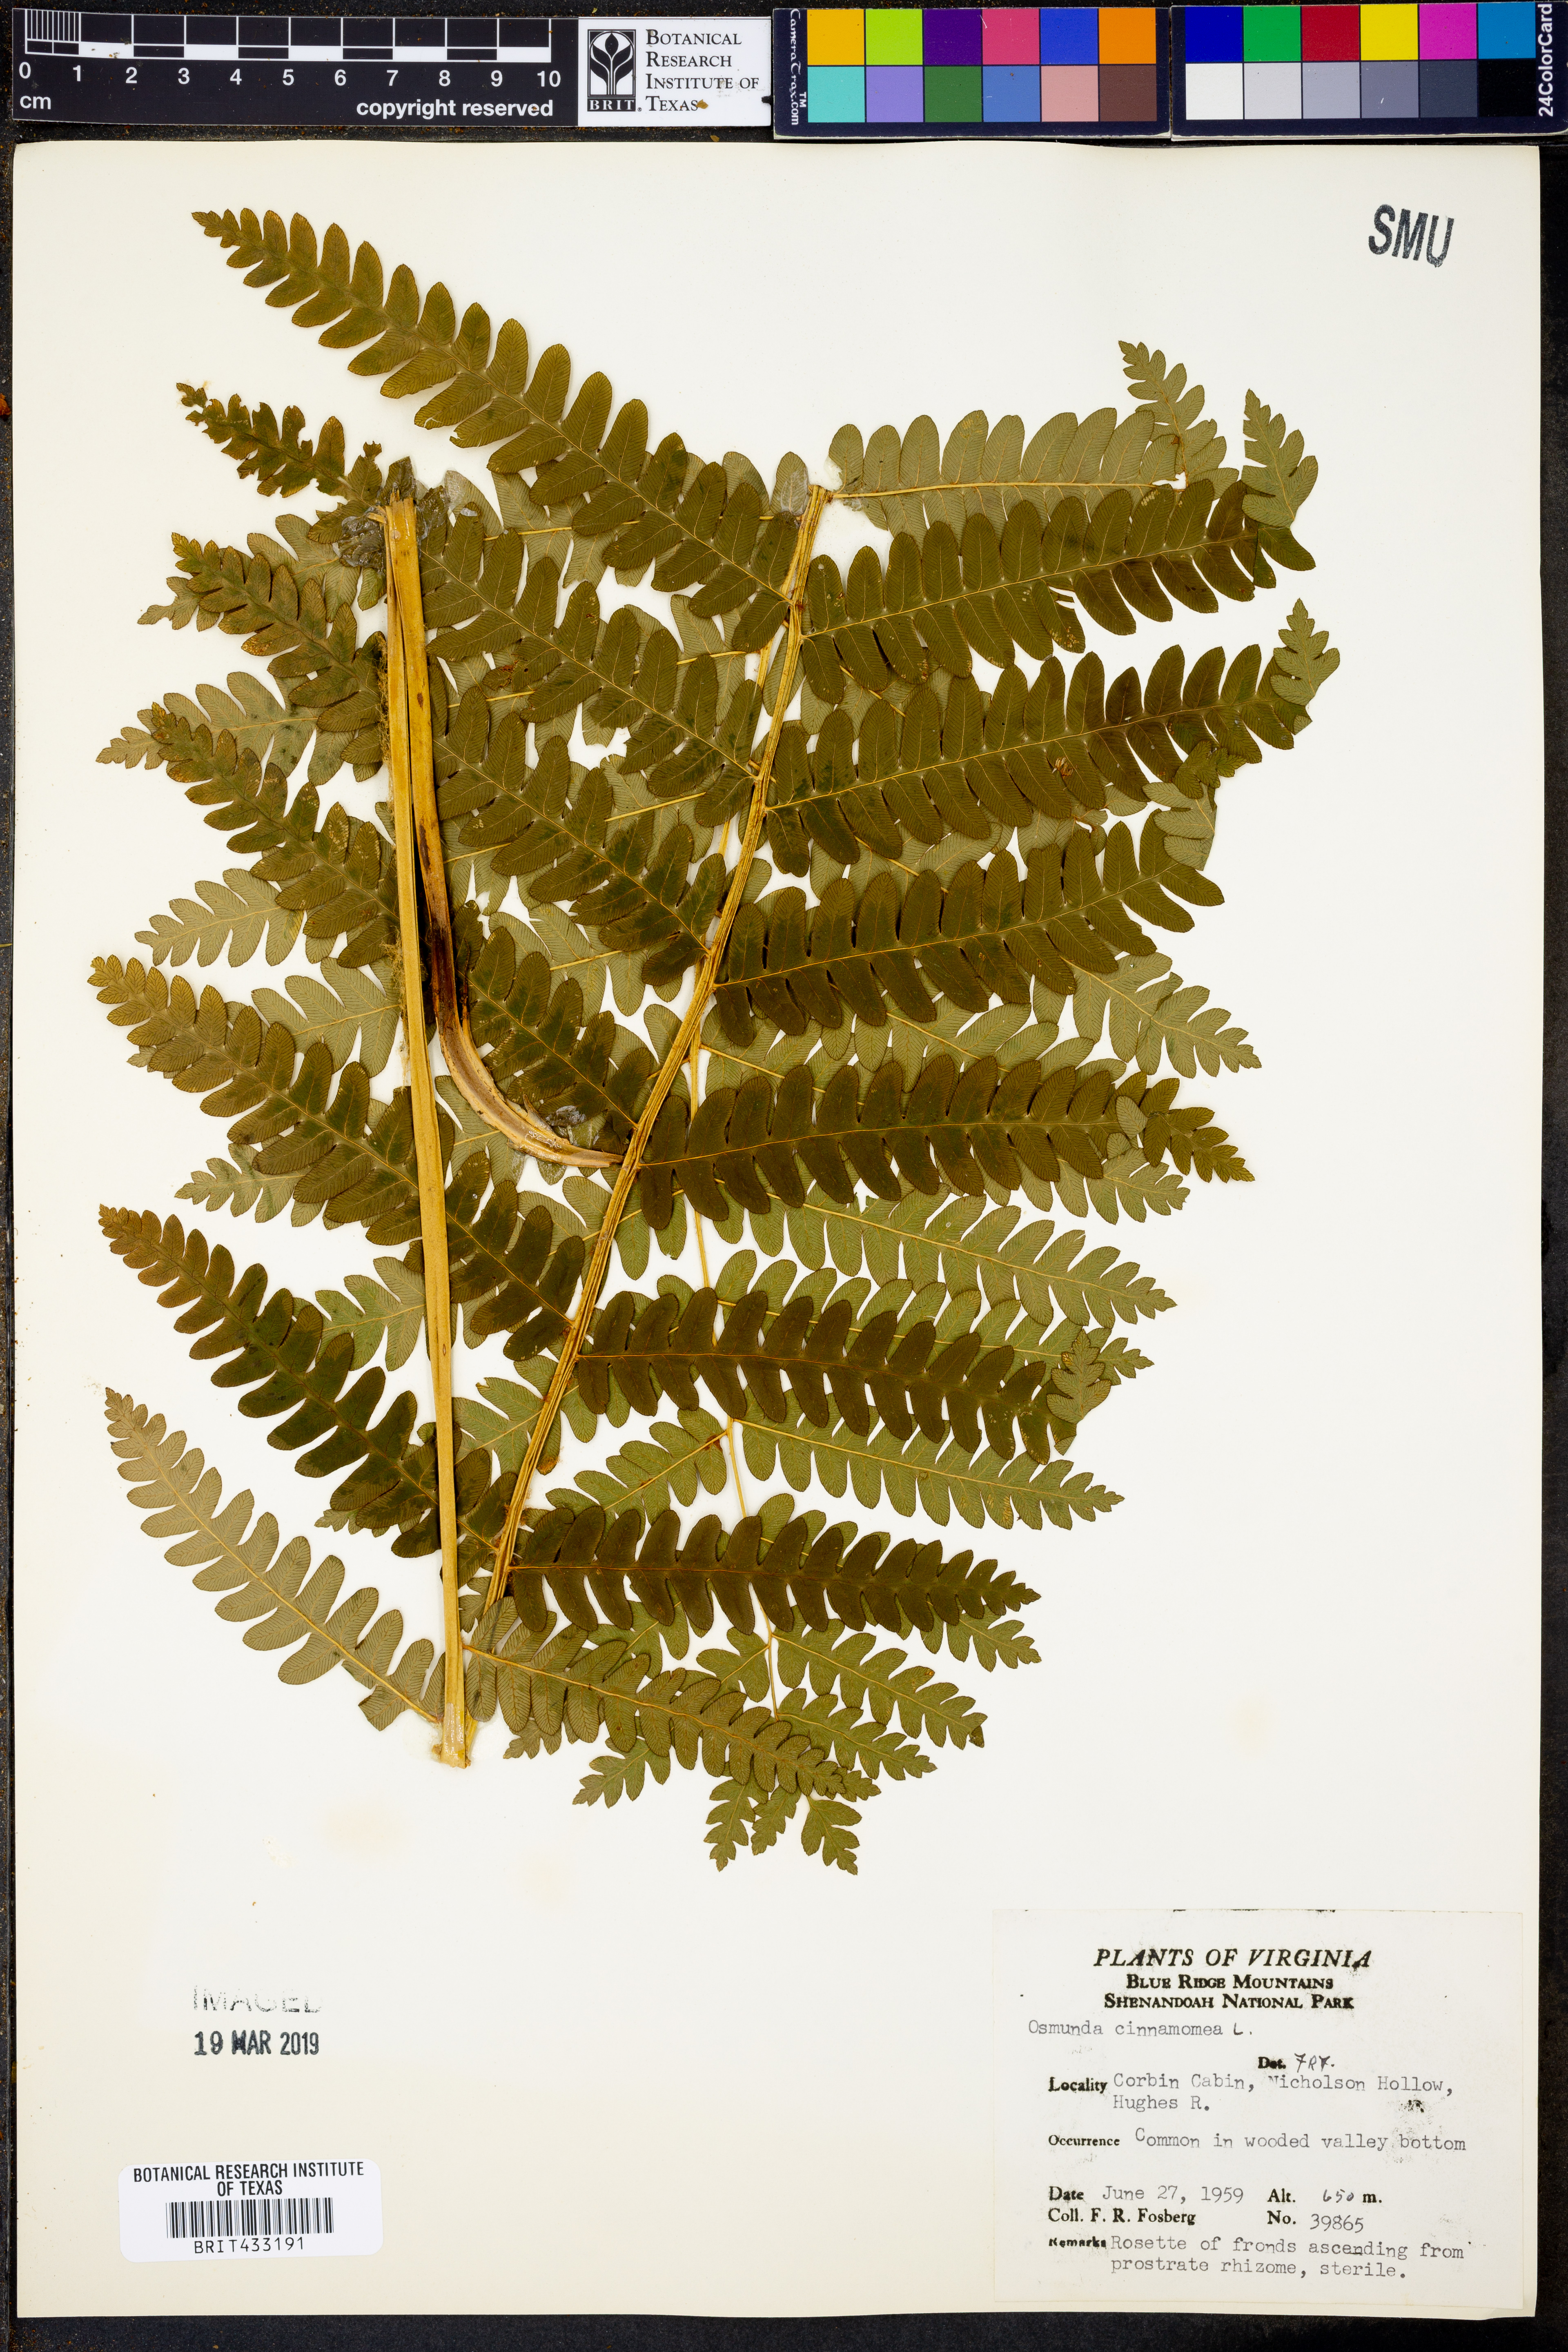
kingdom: Plantae
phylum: Tracheophyta
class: Polypodiopsida
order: Osmundales
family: Osmundaceae
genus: Osmundastrum
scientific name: Osmundastrum cinnamomeum
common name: Cinnamon fern
